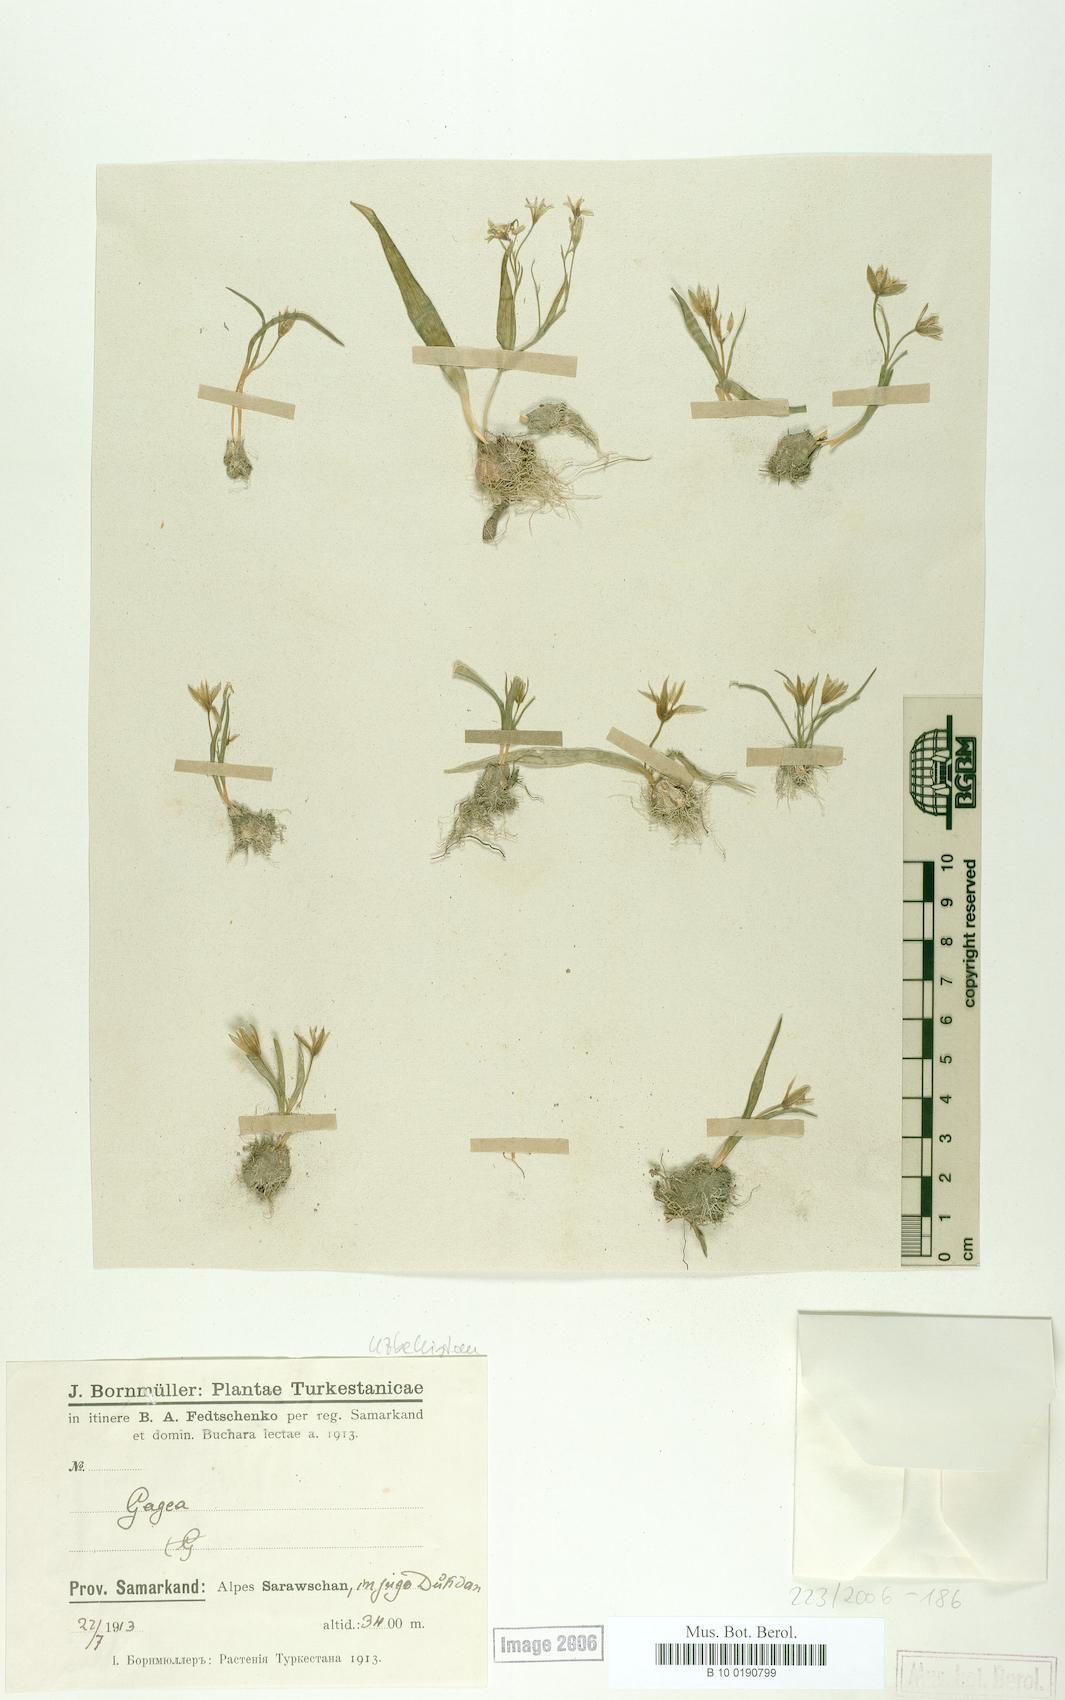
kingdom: Plantae
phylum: Tracheophyta
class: Liliopsida
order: Liliales
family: Liliaceae
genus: Gagea
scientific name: Gagea
